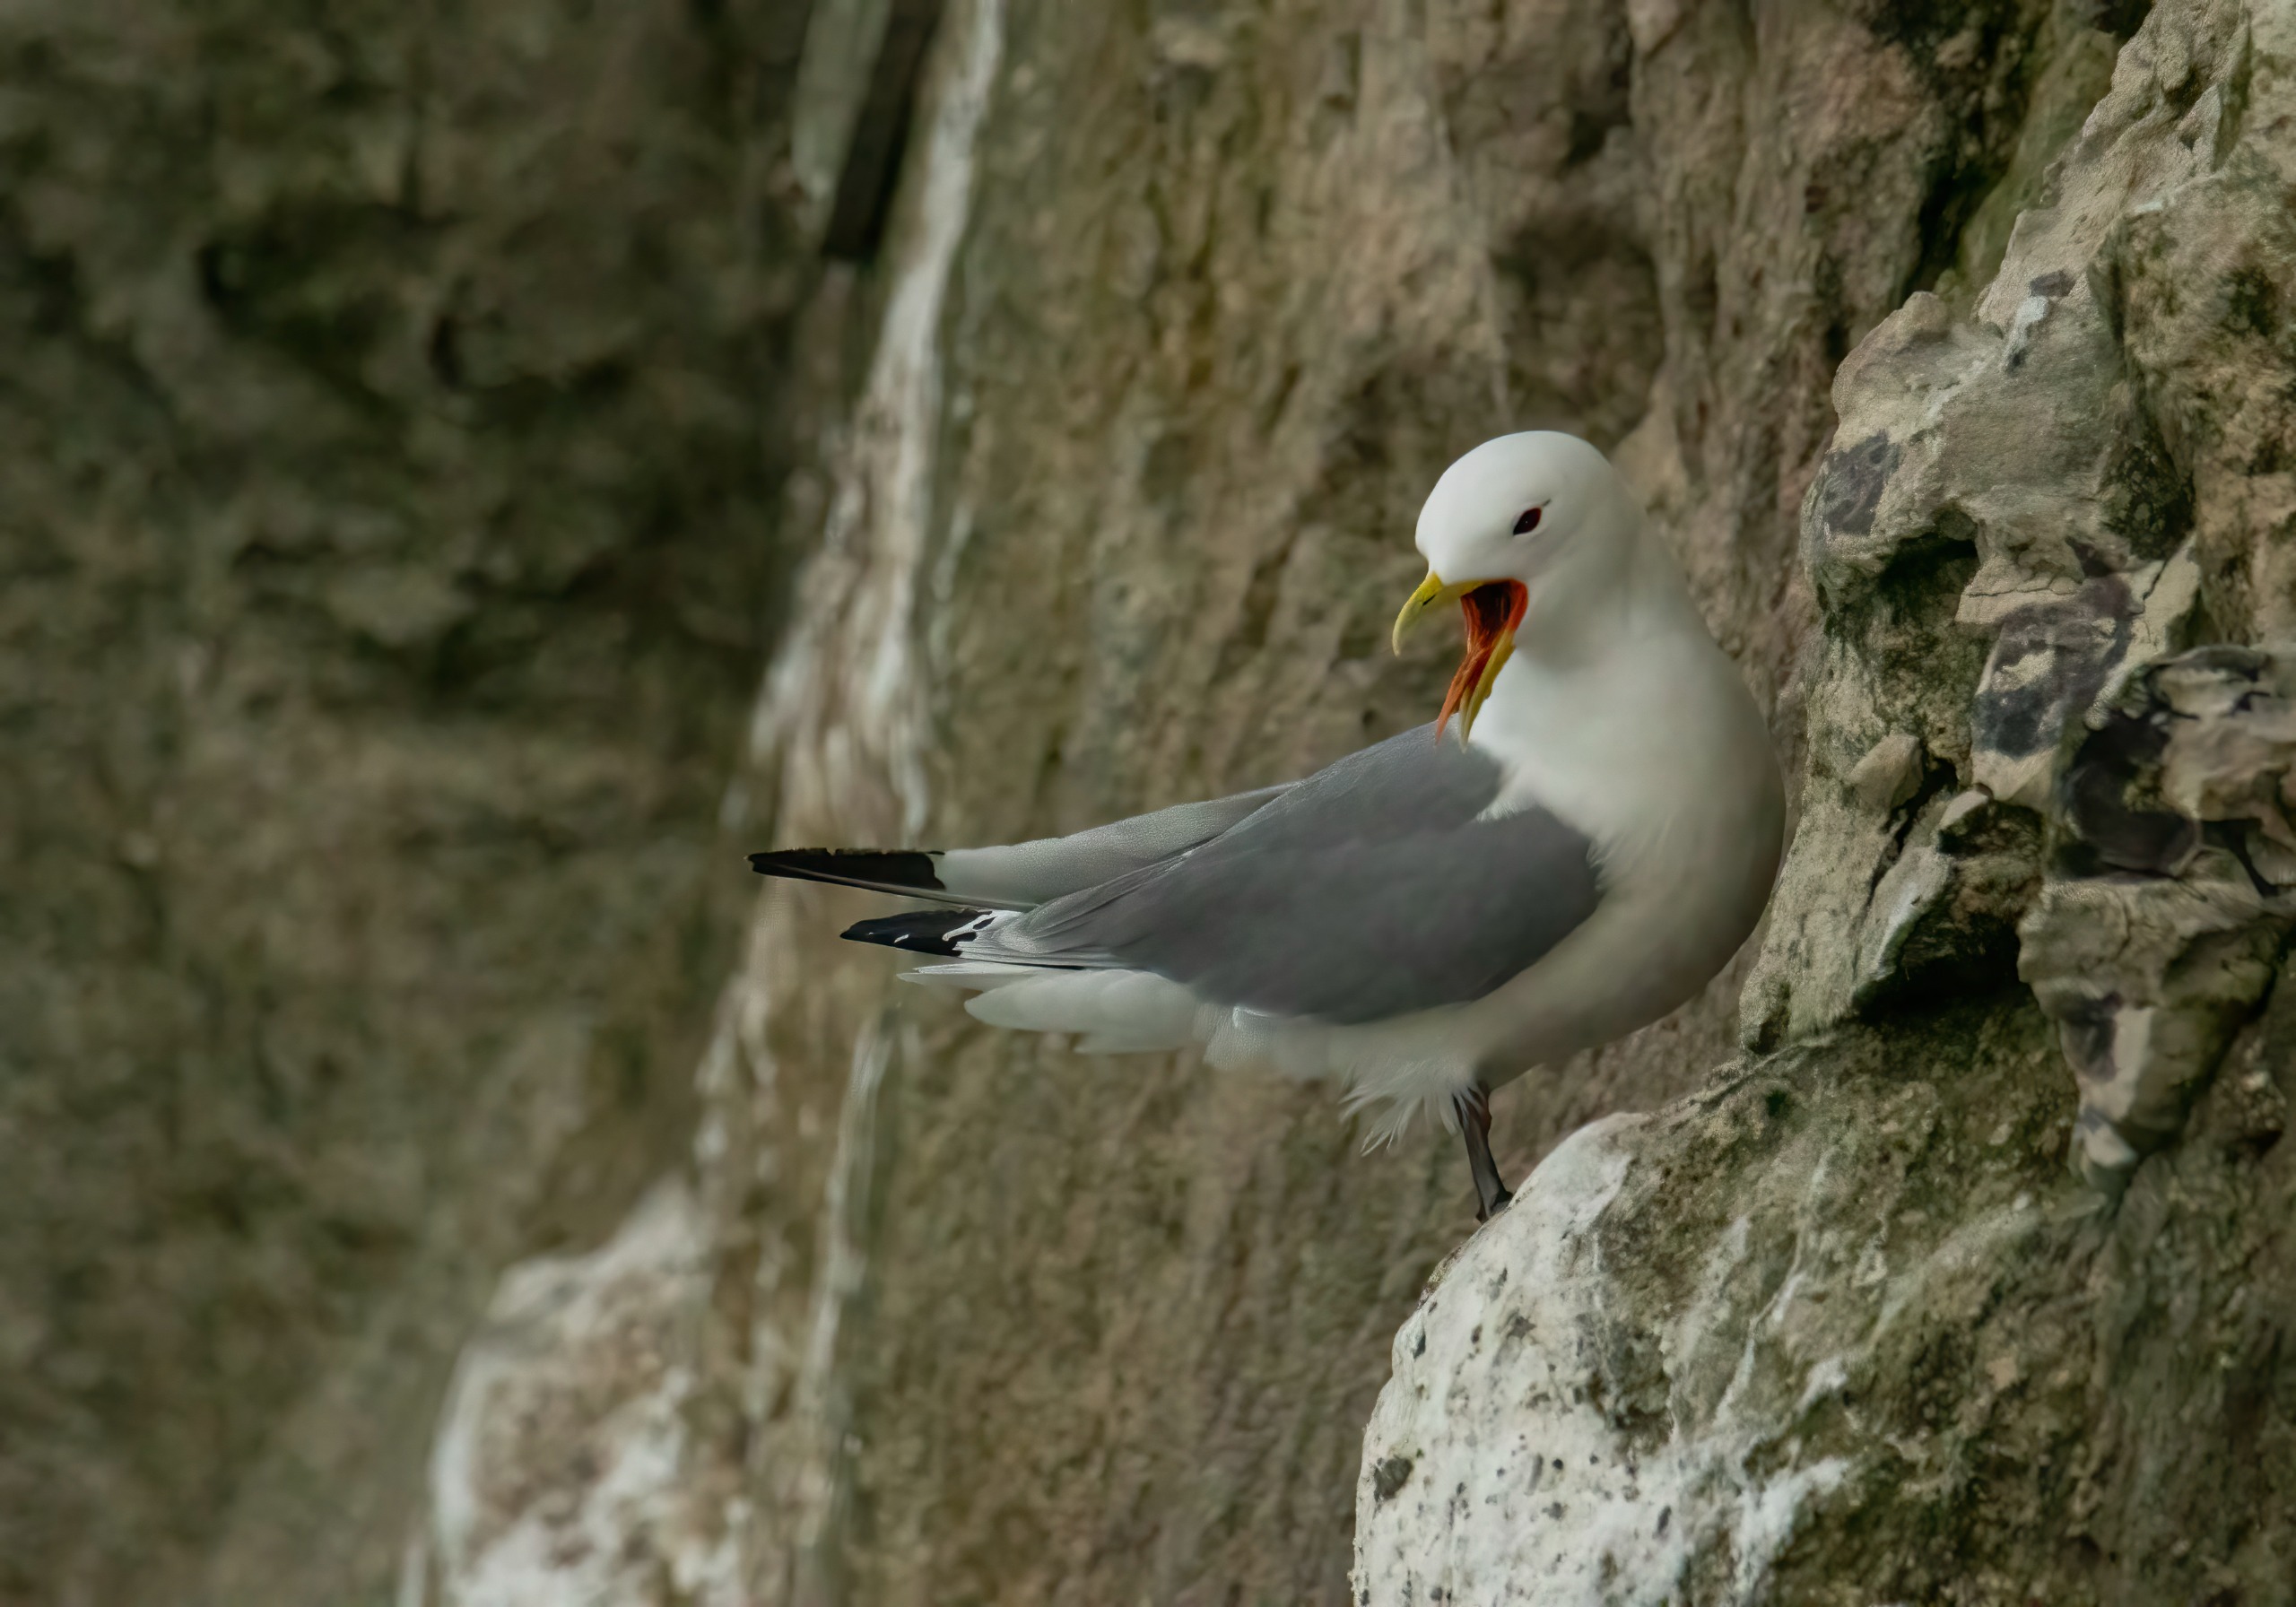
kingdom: Animalia
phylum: Chordata
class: Aves
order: Charadriiformes
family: Laridae
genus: Rissa
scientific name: Rissa tridactyla
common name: Ride
